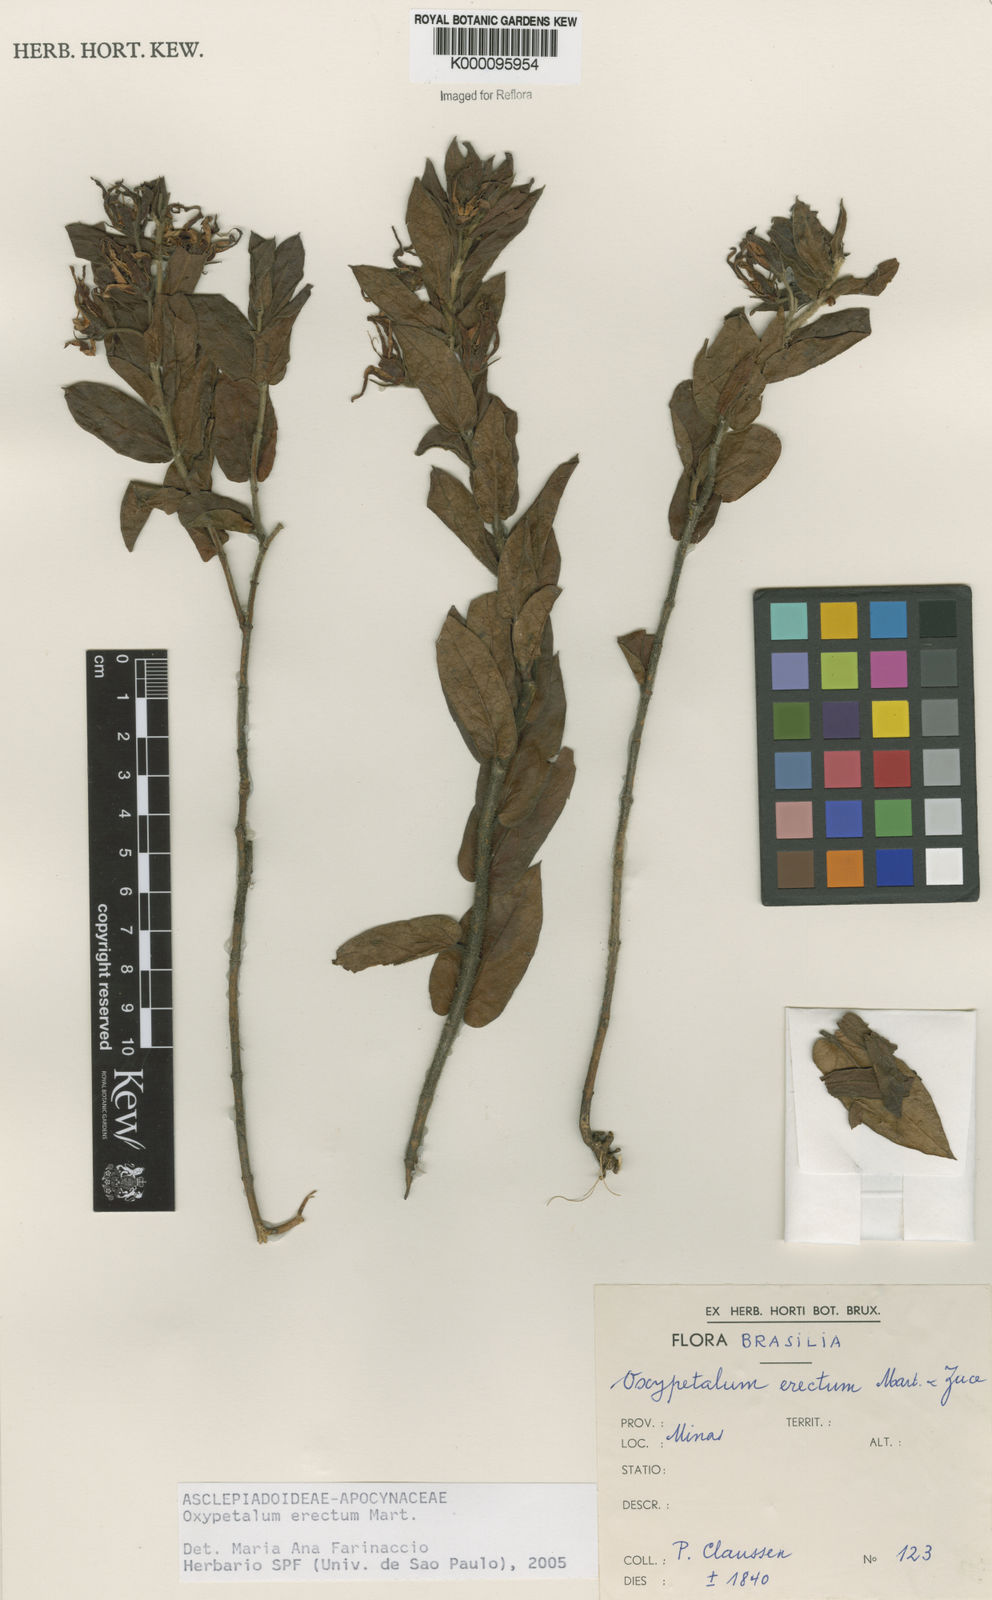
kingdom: Plantae
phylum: Tracheophyta
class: Magnoliopsida
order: Gentianales
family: Apocynaceae
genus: Oxypetalum
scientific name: Oxypetalum erectum
